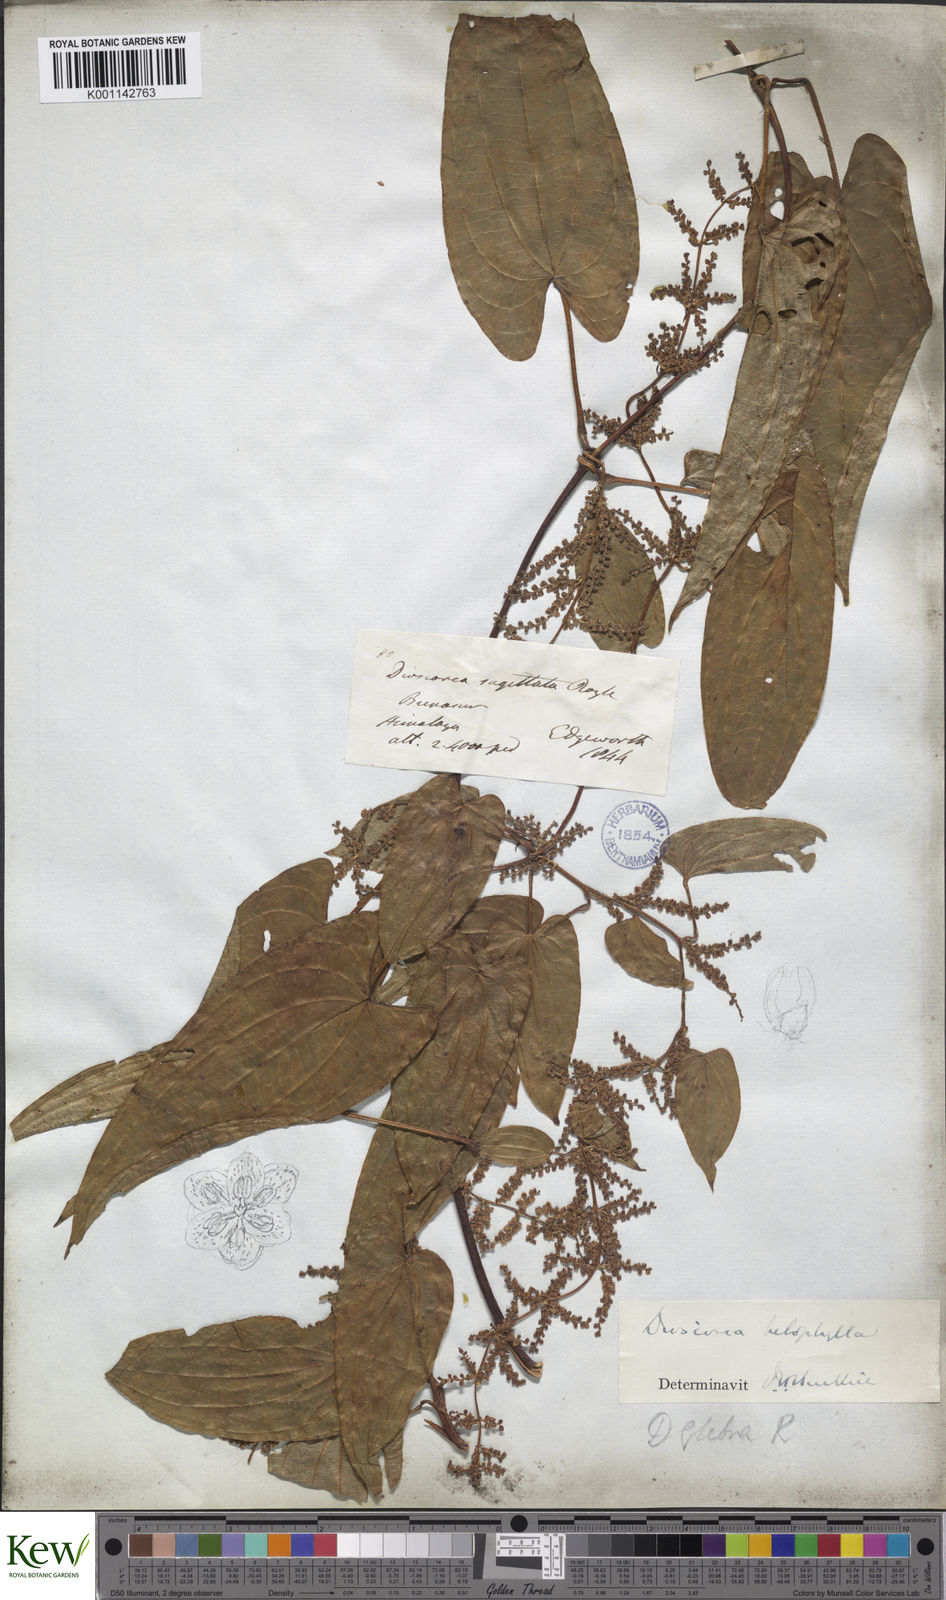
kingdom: Plantae
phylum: Tracheophyta
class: Liliopsida
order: Dioscoreales
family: Dioscoreaceae
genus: Dioscorea
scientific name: Dioscorea belophylla
